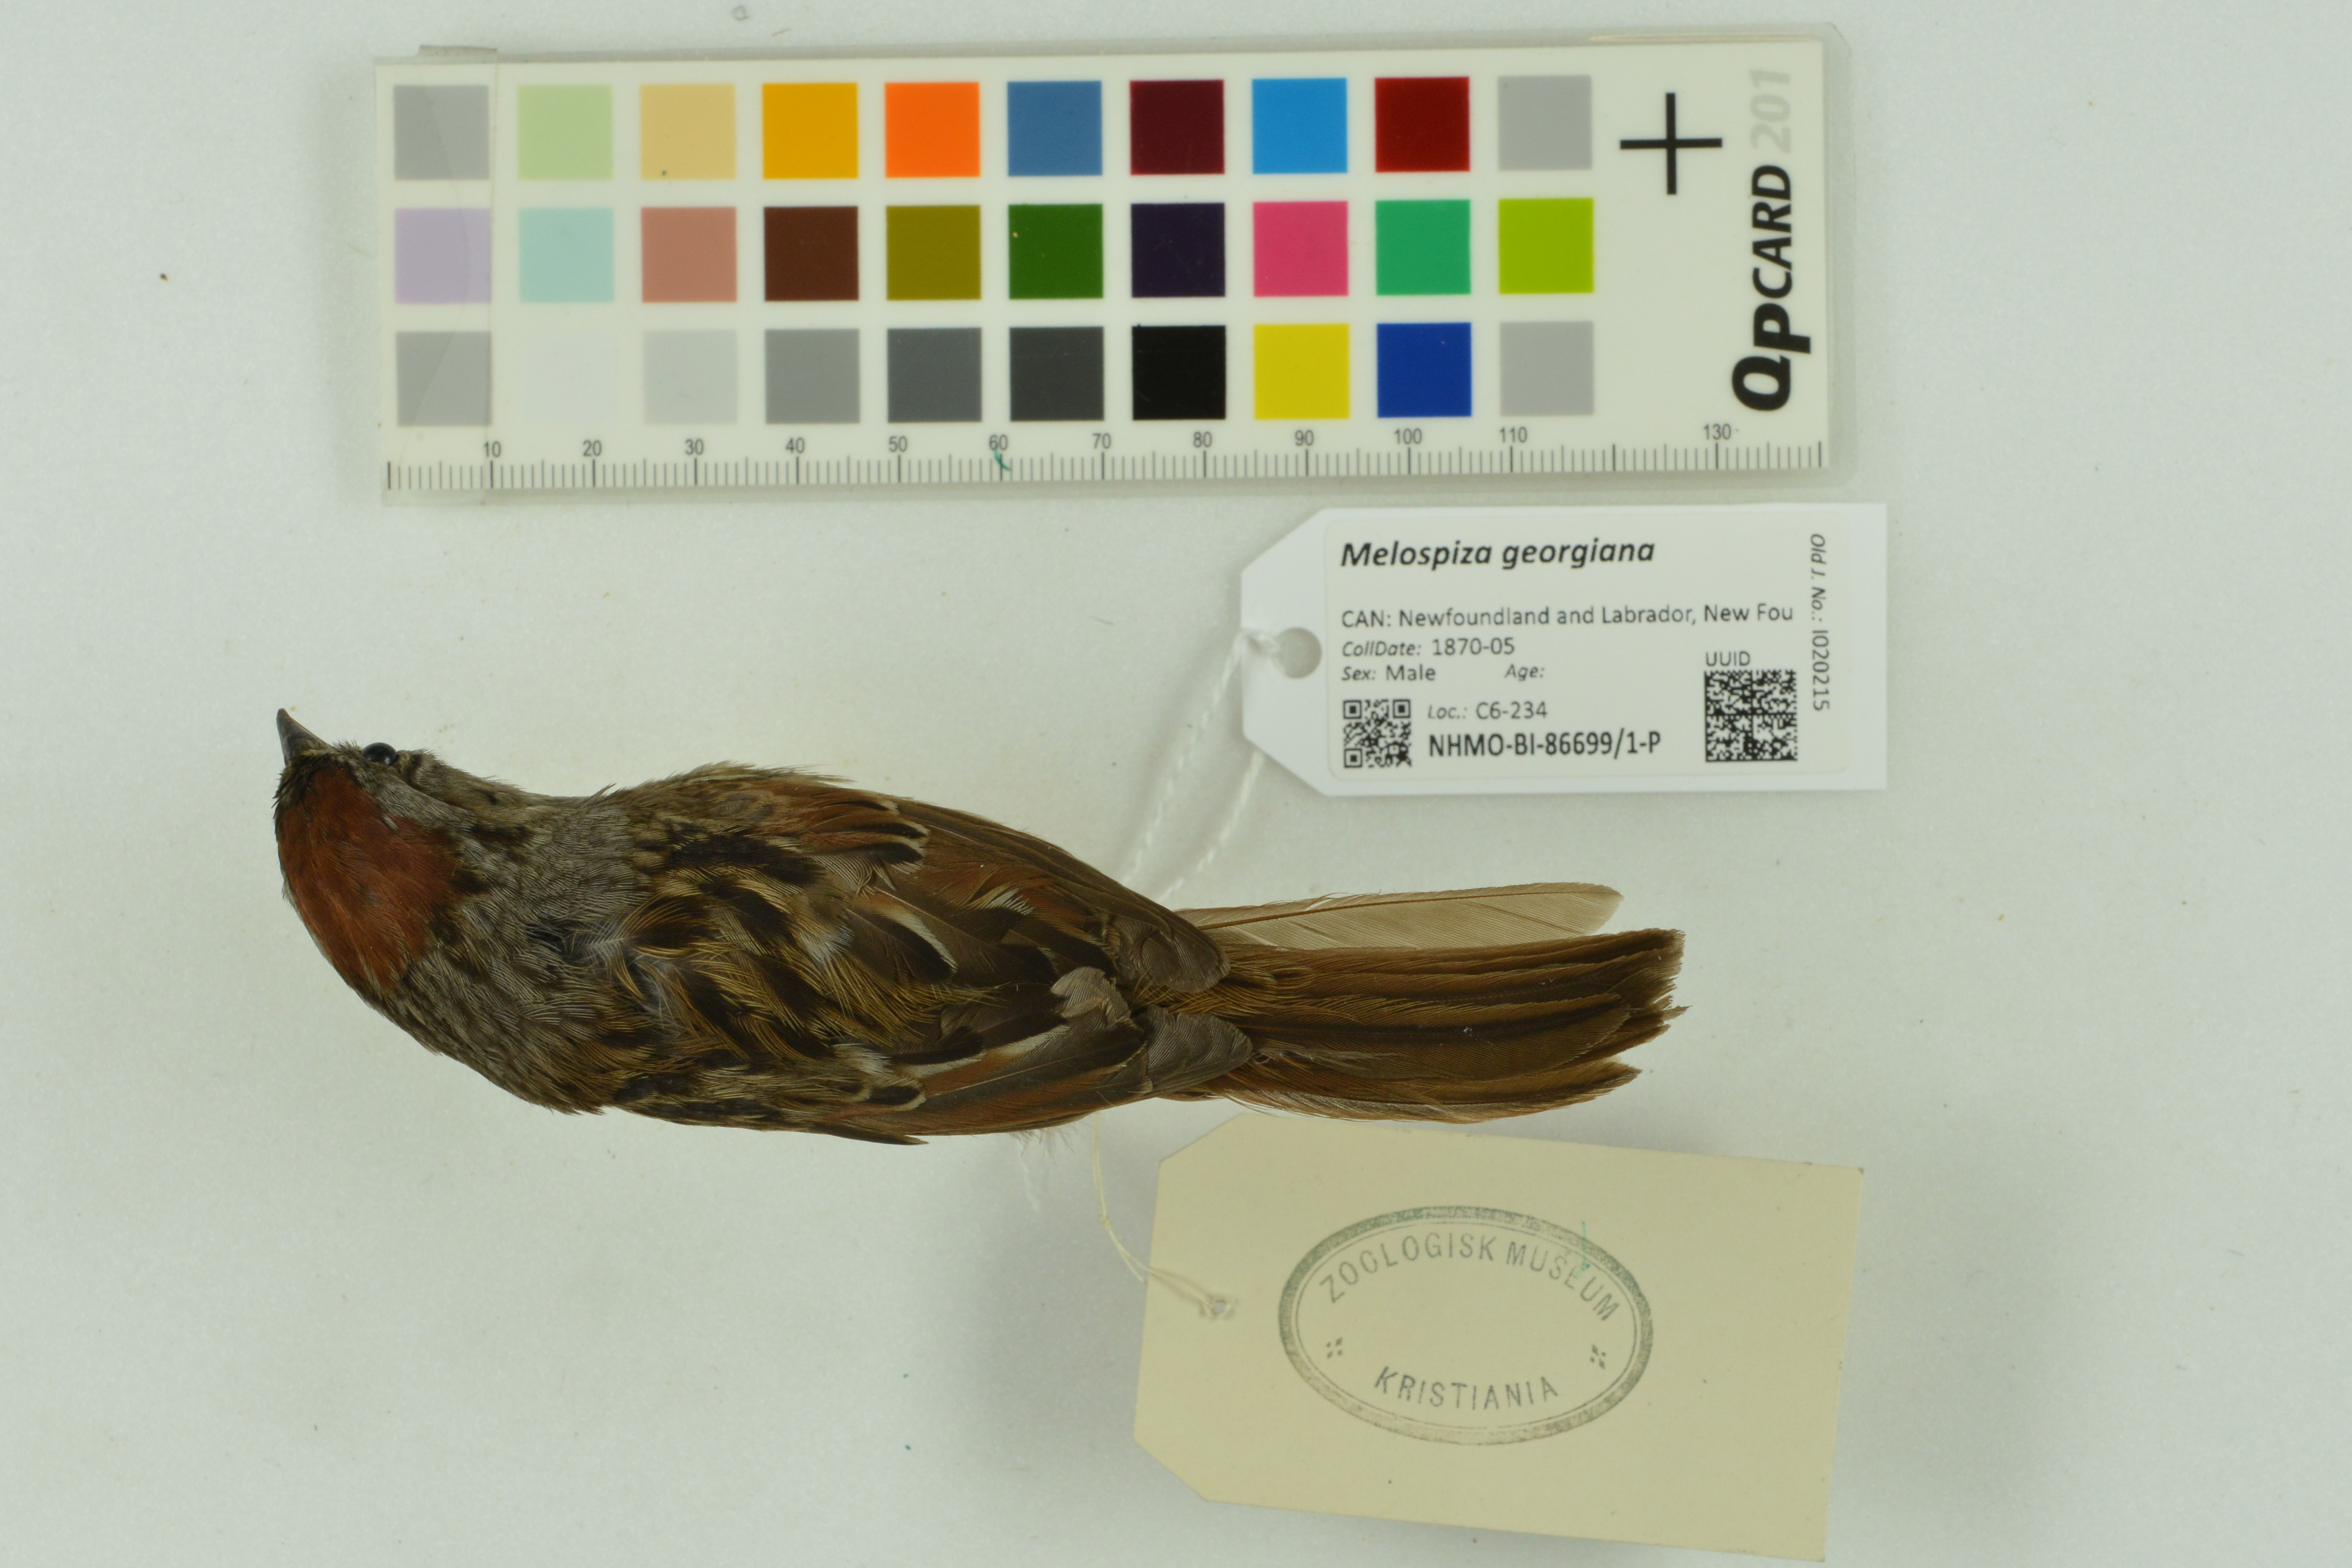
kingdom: Animalia
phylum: Chordata
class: Aves
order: Passeriformes
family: Passerellidae
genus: Melospiza
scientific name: Melospiza georgiana
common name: Swamp sparrow
